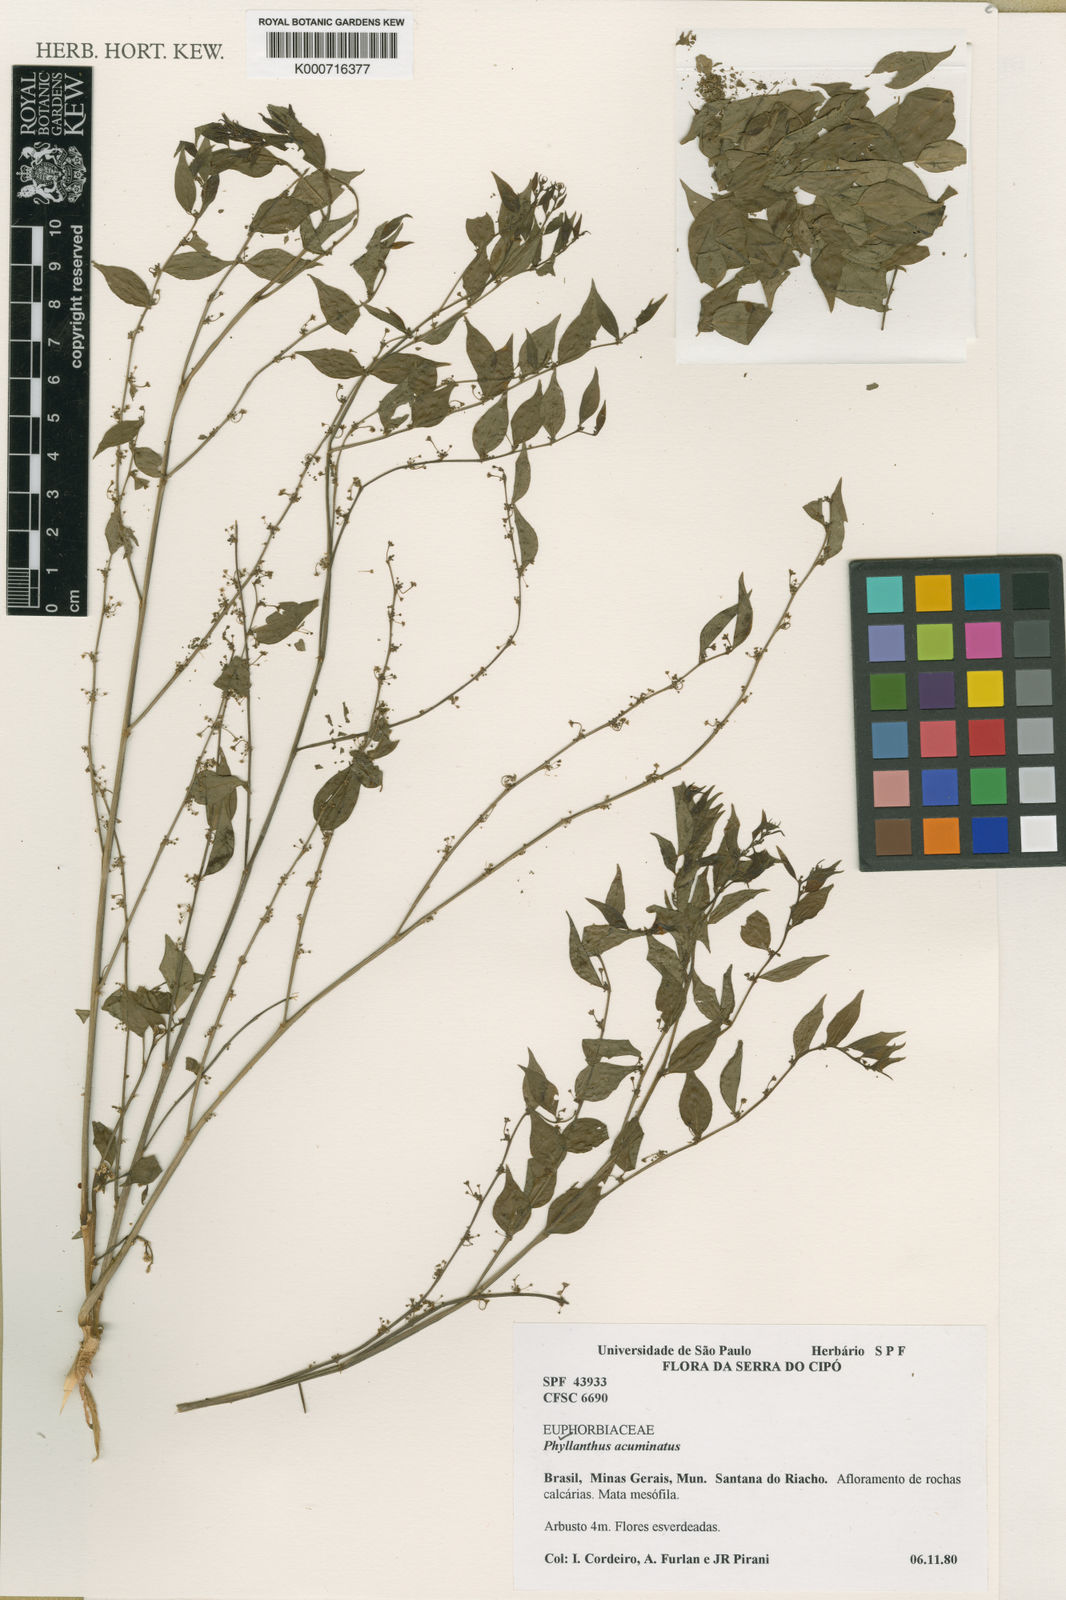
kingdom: Plantae
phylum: Tracheophyta
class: Magnoliopsida
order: Malpighiales
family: Phyllanthaceae
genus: Phyllanthus
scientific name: Phyllanthus acuminatus
